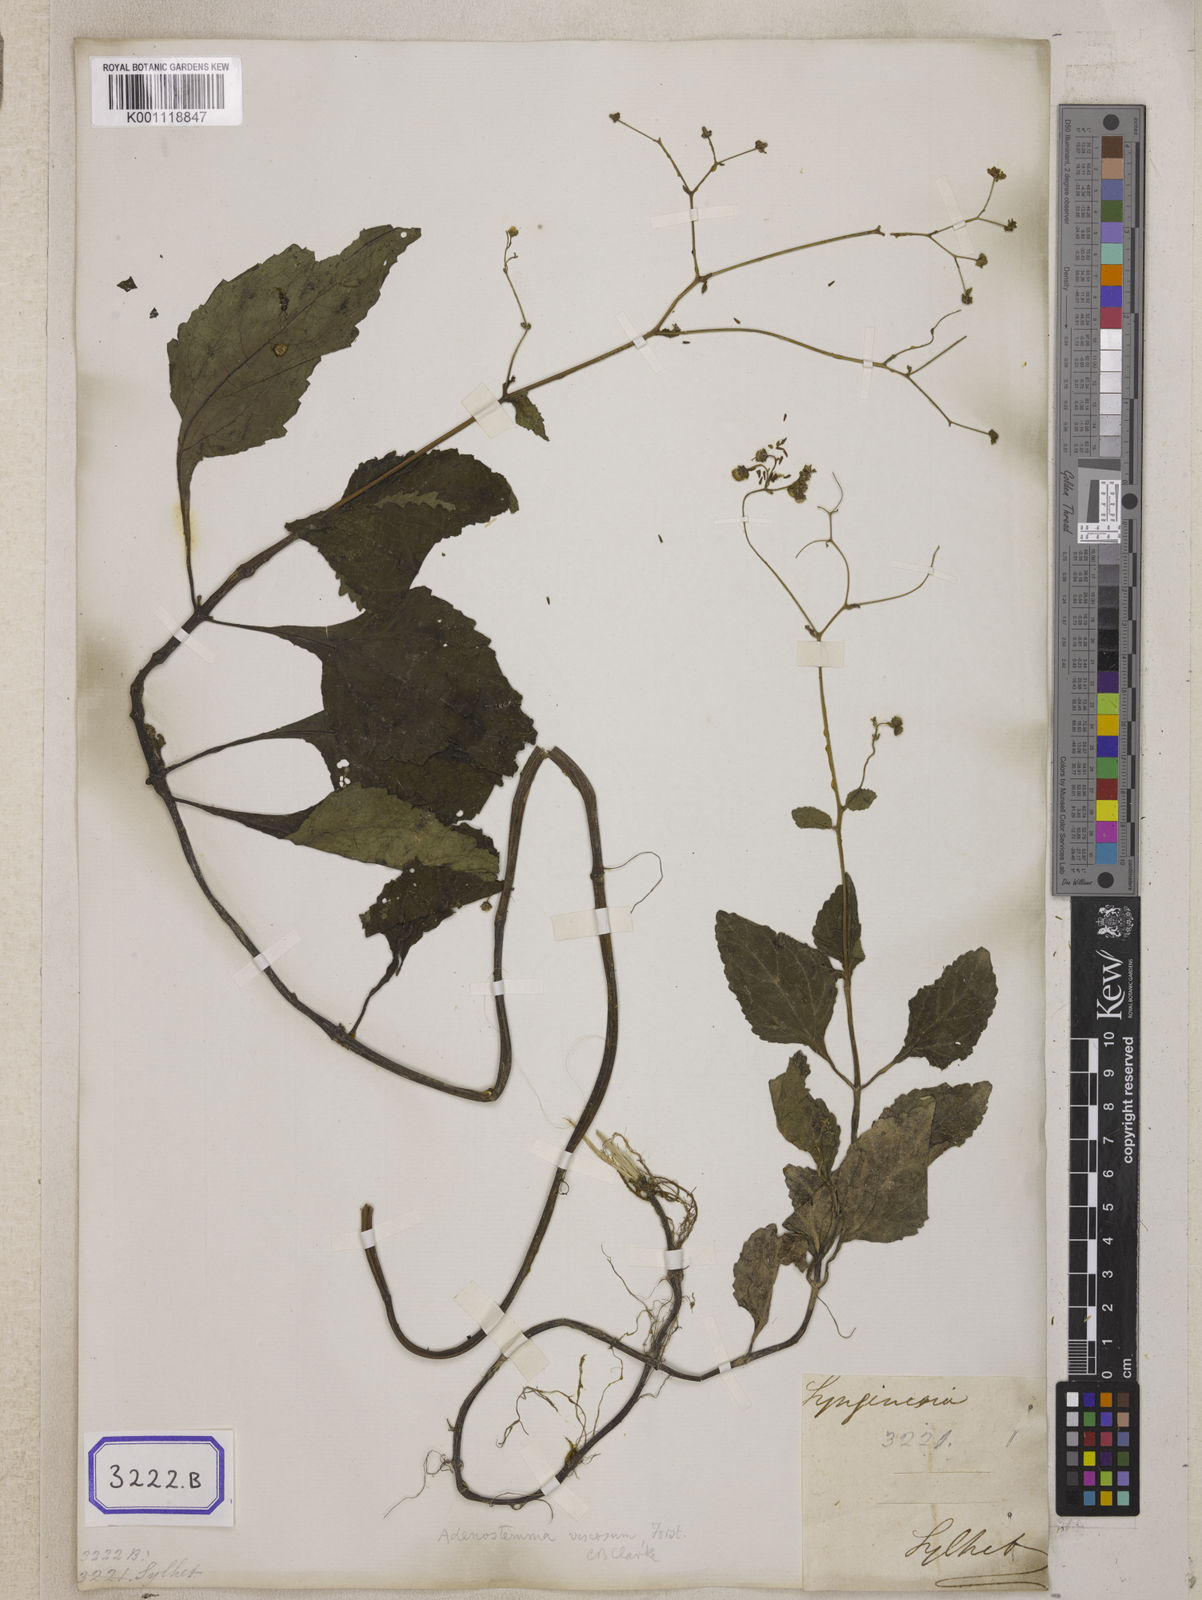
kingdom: Plantae
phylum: Tracheophyta
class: Magnoliopsida
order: Asterales
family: Asteraceae
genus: Adenostemma
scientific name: Adenostemma viscosum
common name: Dungweed
